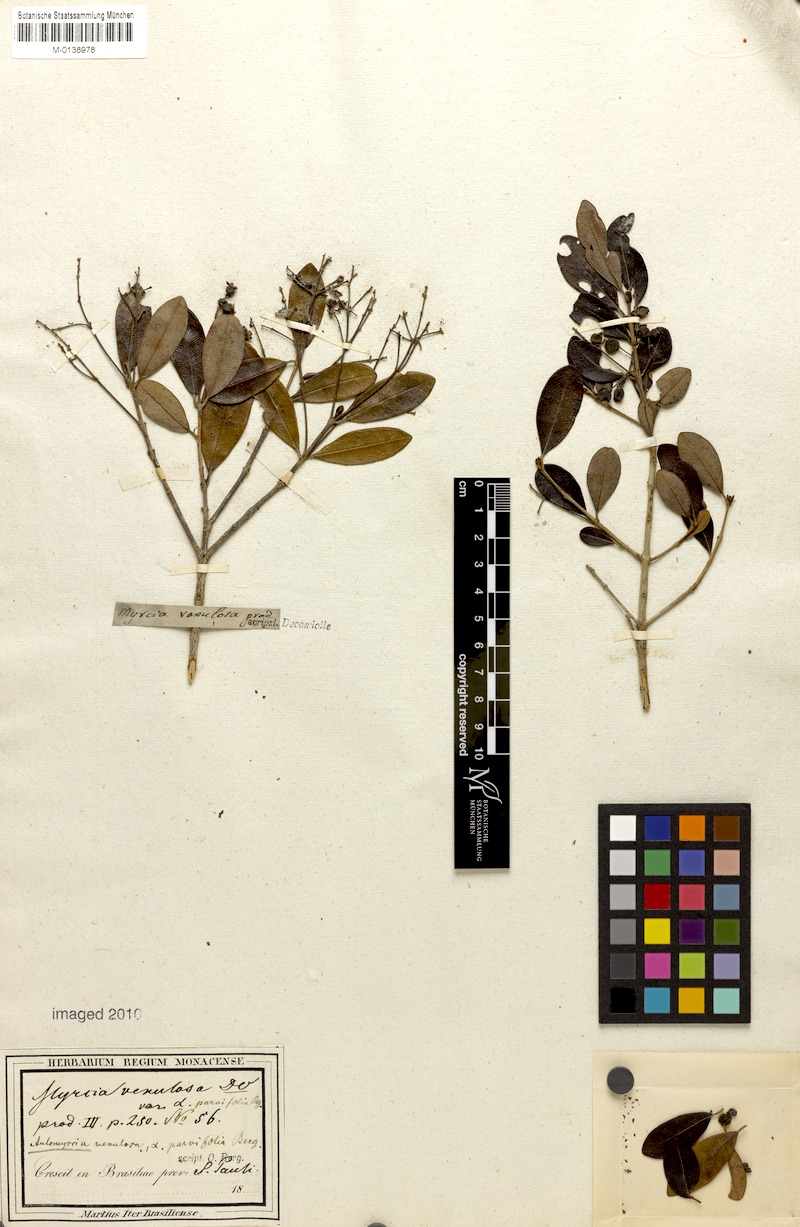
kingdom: Plantae
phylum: Tracheophyta
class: Magnoliopsida
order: Myrtales
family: Myrtaceae
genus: Myrcia
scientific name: Myrcia venulosa
